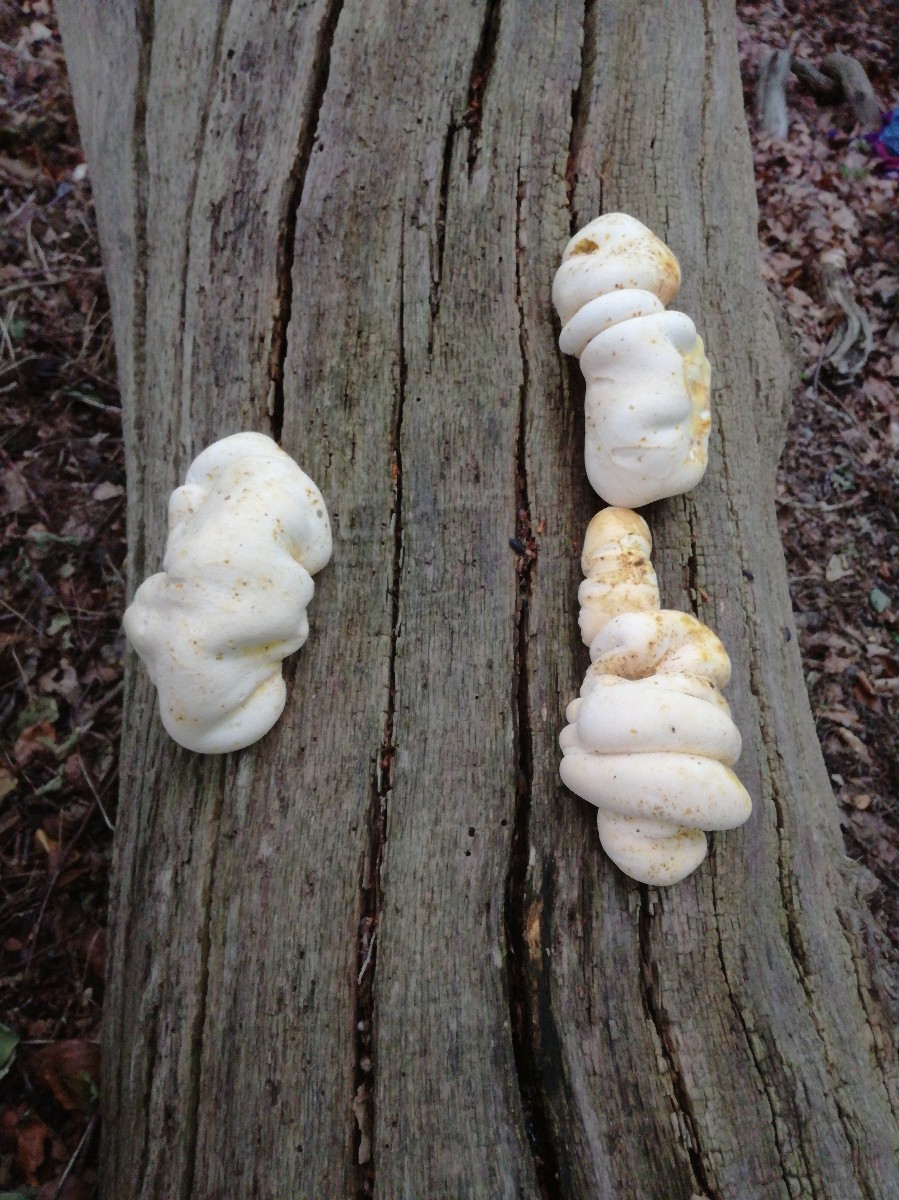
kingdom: Fungi
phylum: Basidiomycota
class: Agaricomycetes
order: Polyporales
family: Fomitopsidaceae
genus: Buglossoporus
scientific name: Buglossoporus quercinus
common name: egetunge
